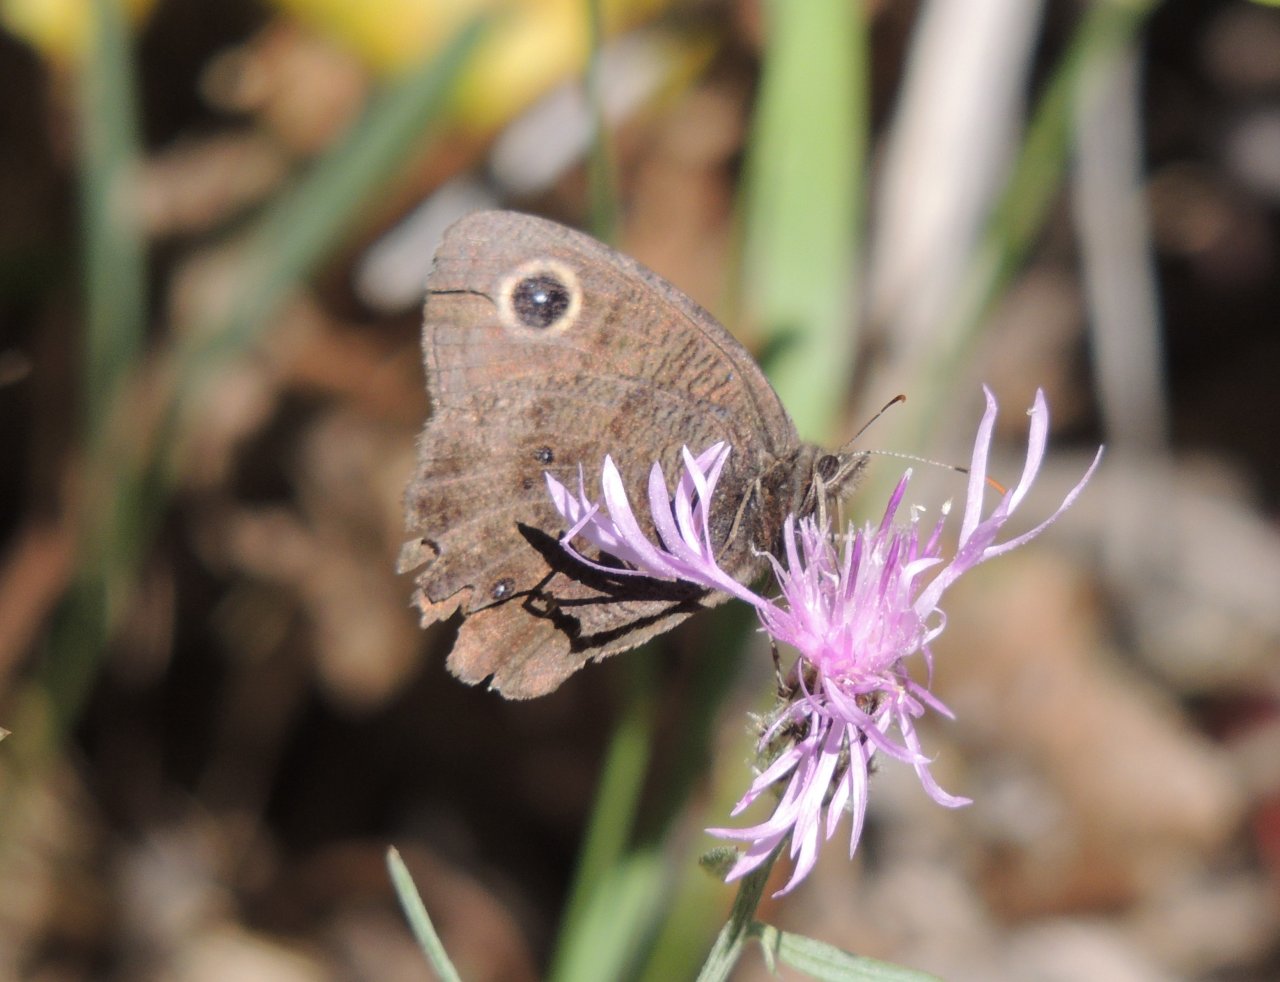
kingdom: Animalia
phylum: Arthropoda
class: Insecta
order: Lepidoptera
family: Nymphalidae
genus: Cercyonis
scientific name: Cercyonis pegala
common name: Common Wood-Nymph
